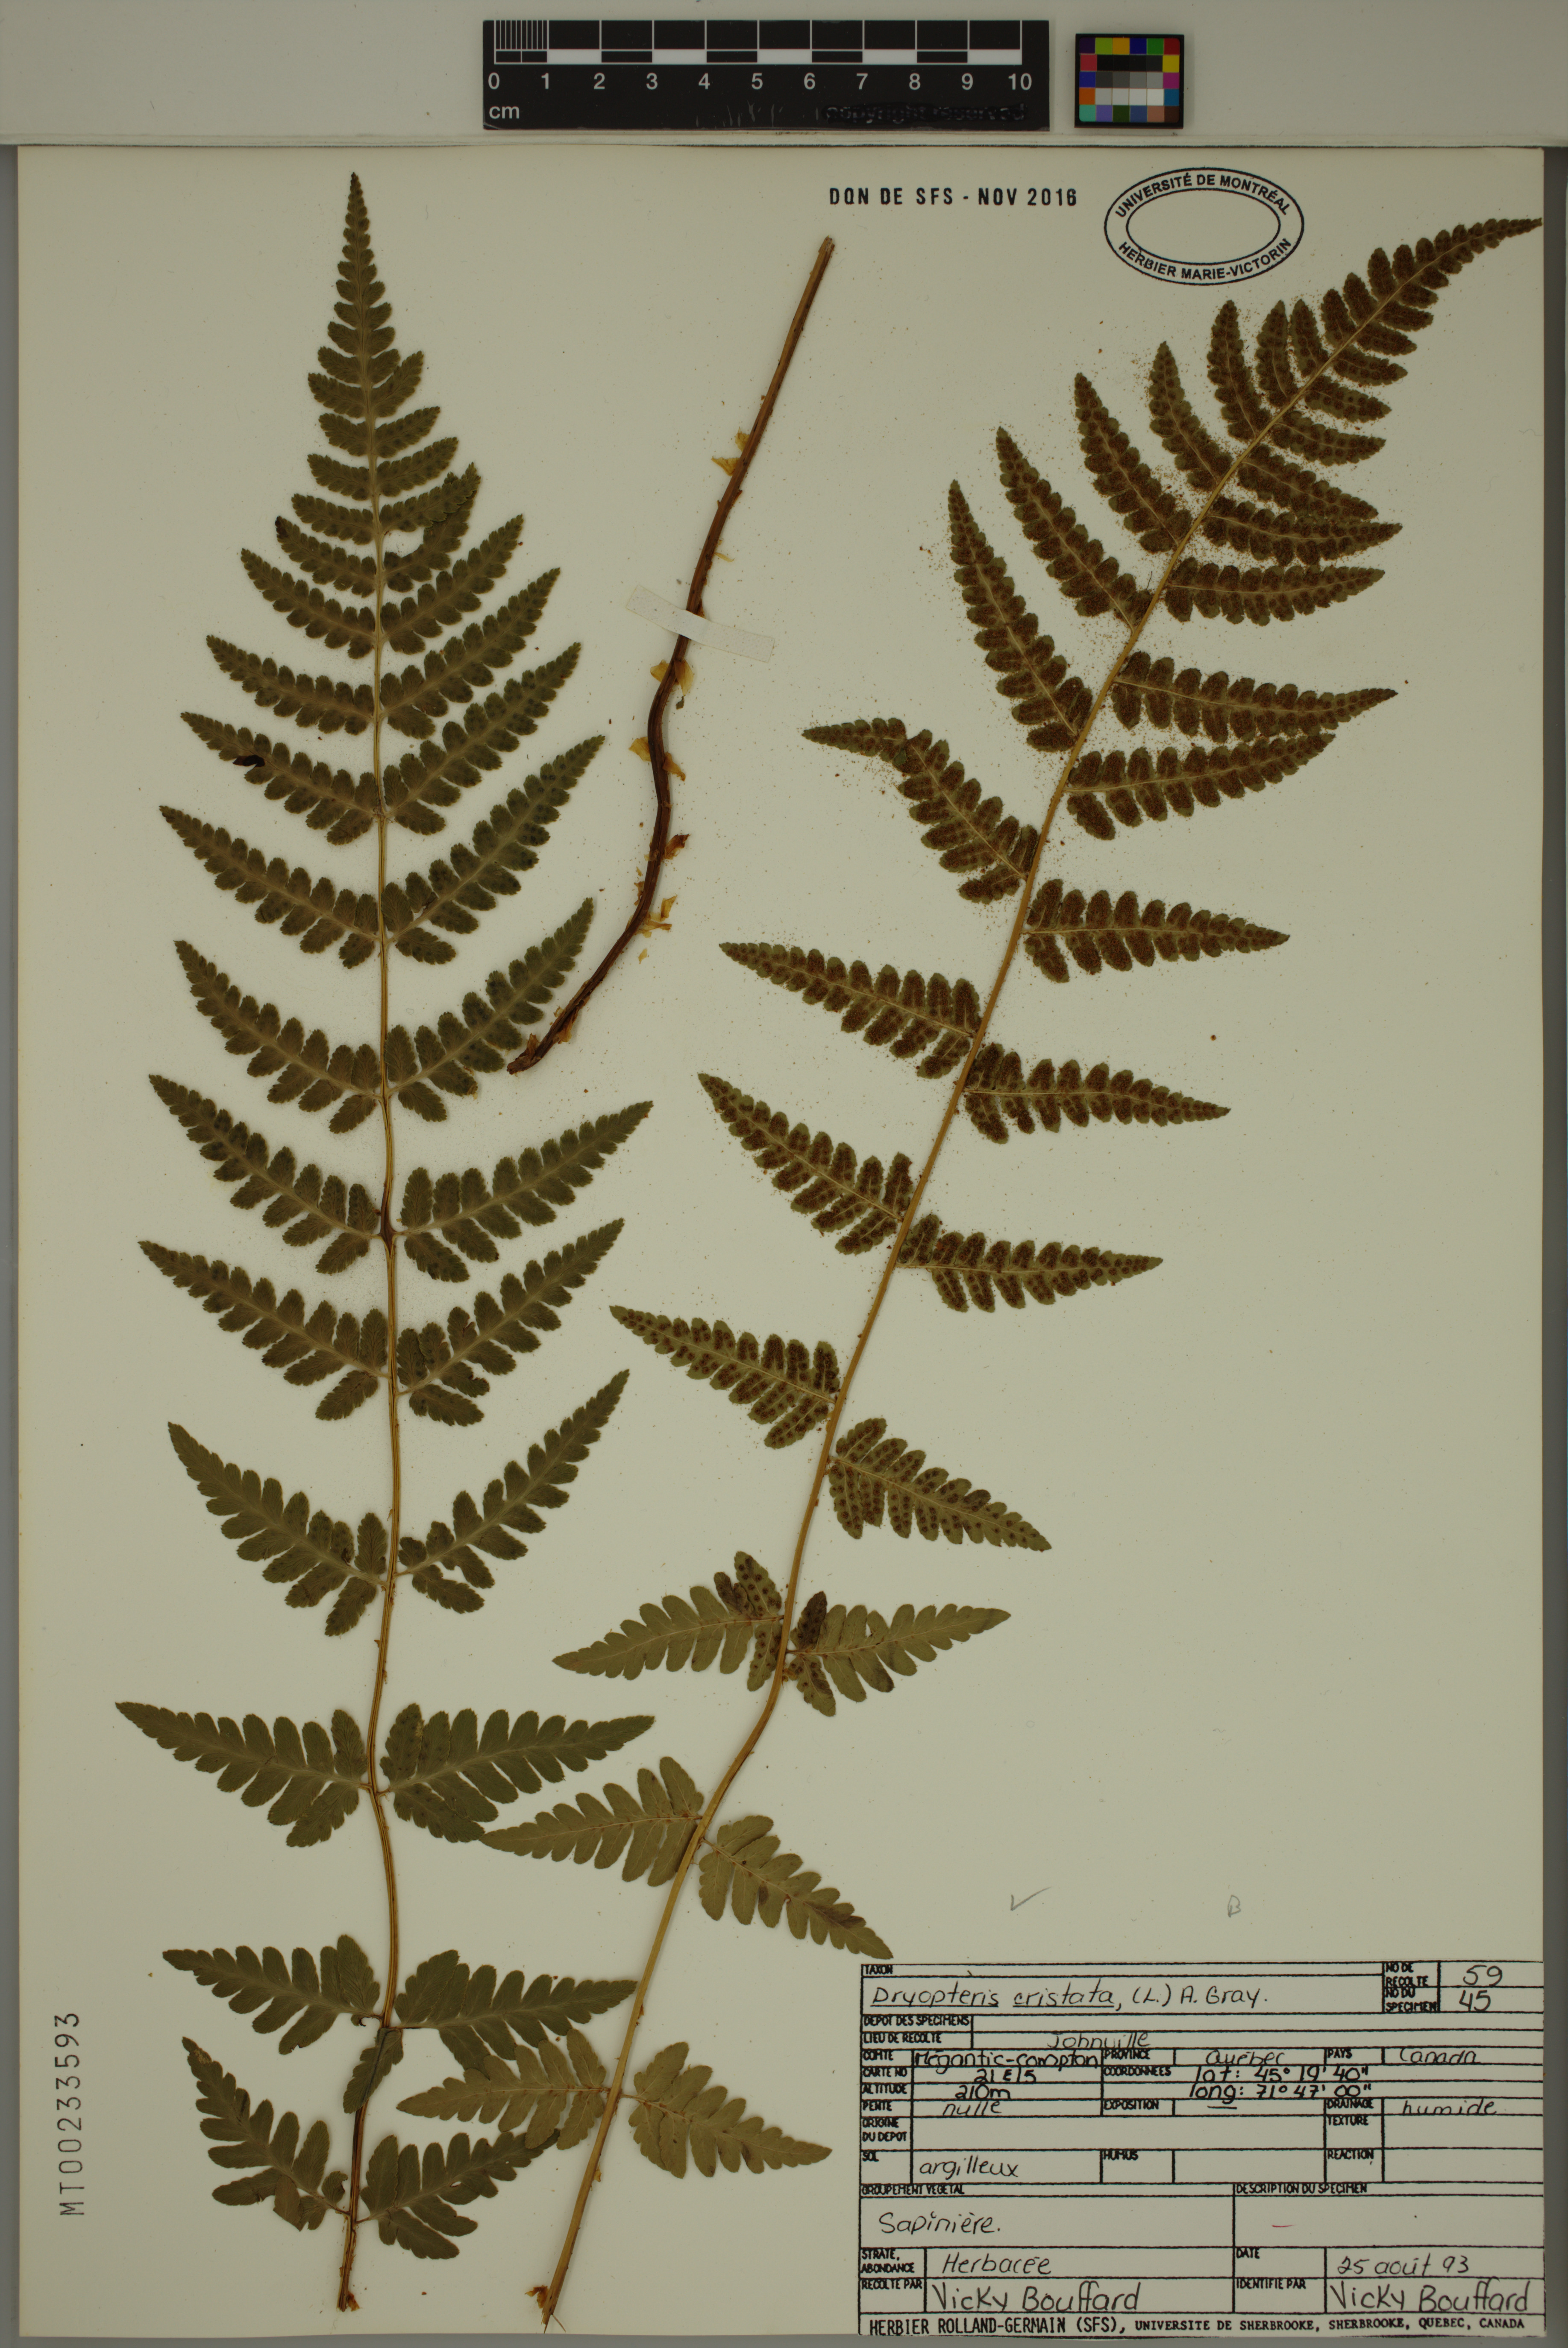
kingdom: Plantae
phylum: Tracheophyta
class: Polypodiopsida
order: Polypodiales
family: Dryopteridaceae
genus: Dryopteris
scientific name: Dryopteris cristata
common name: Crested wood fern
